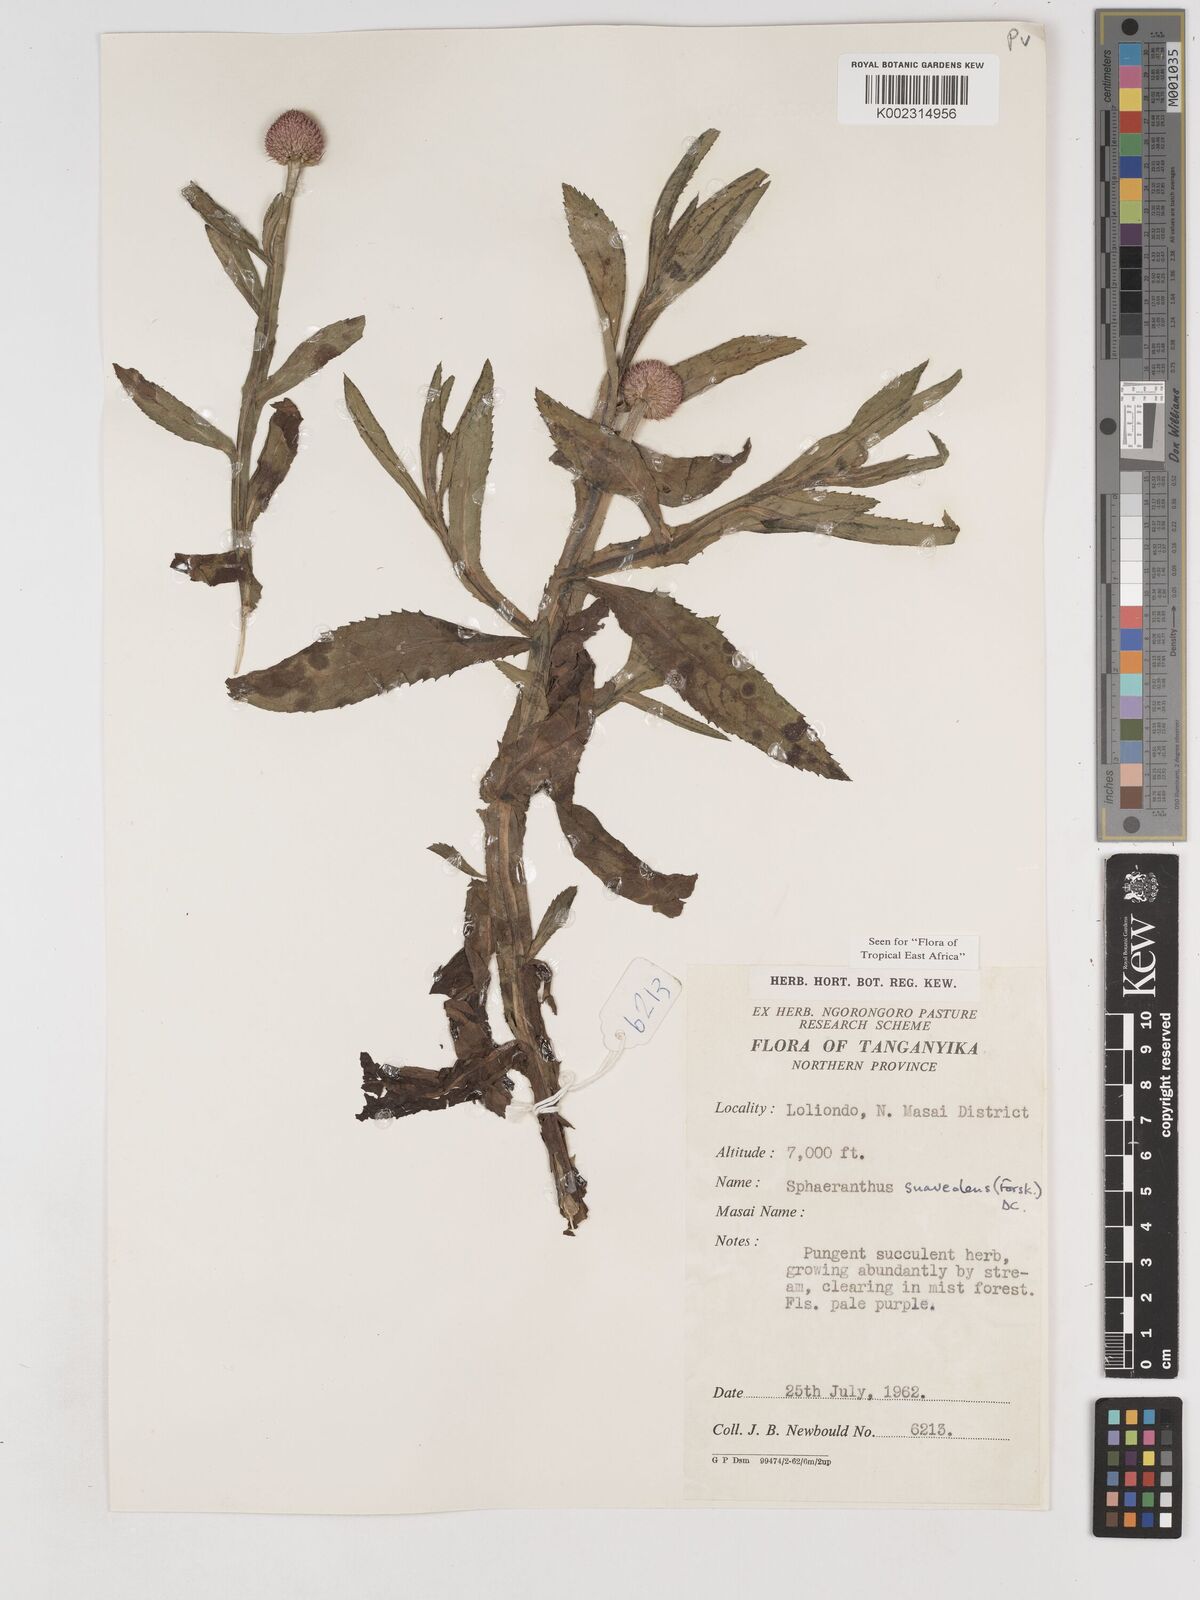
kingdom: Plantae
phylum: Tracheophyta
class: Magnoliopsida
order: Asterales
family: Asteraceae
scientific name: Asteraceae
